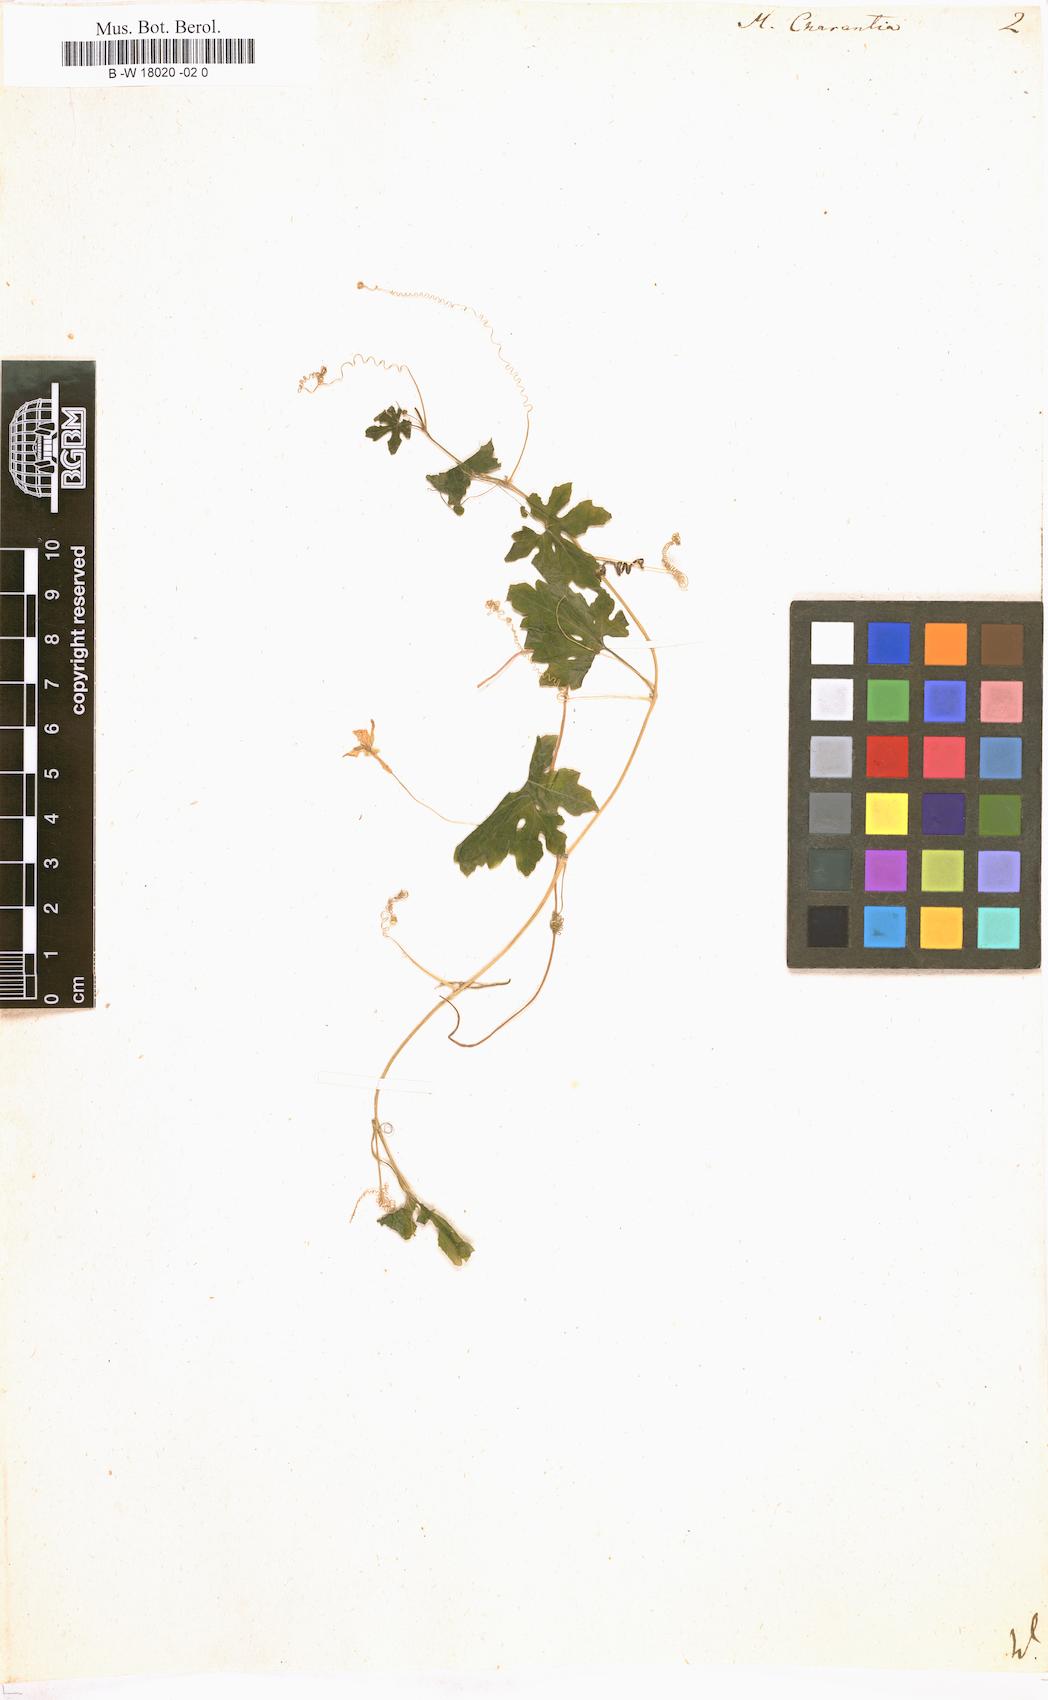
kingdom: Plantae
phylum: Tracheophyta
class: Magnoliopsida
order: Cucurbitales
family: Cucurbitaceae
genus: Momordica
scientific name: Momordica charantia
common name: Balsampear
